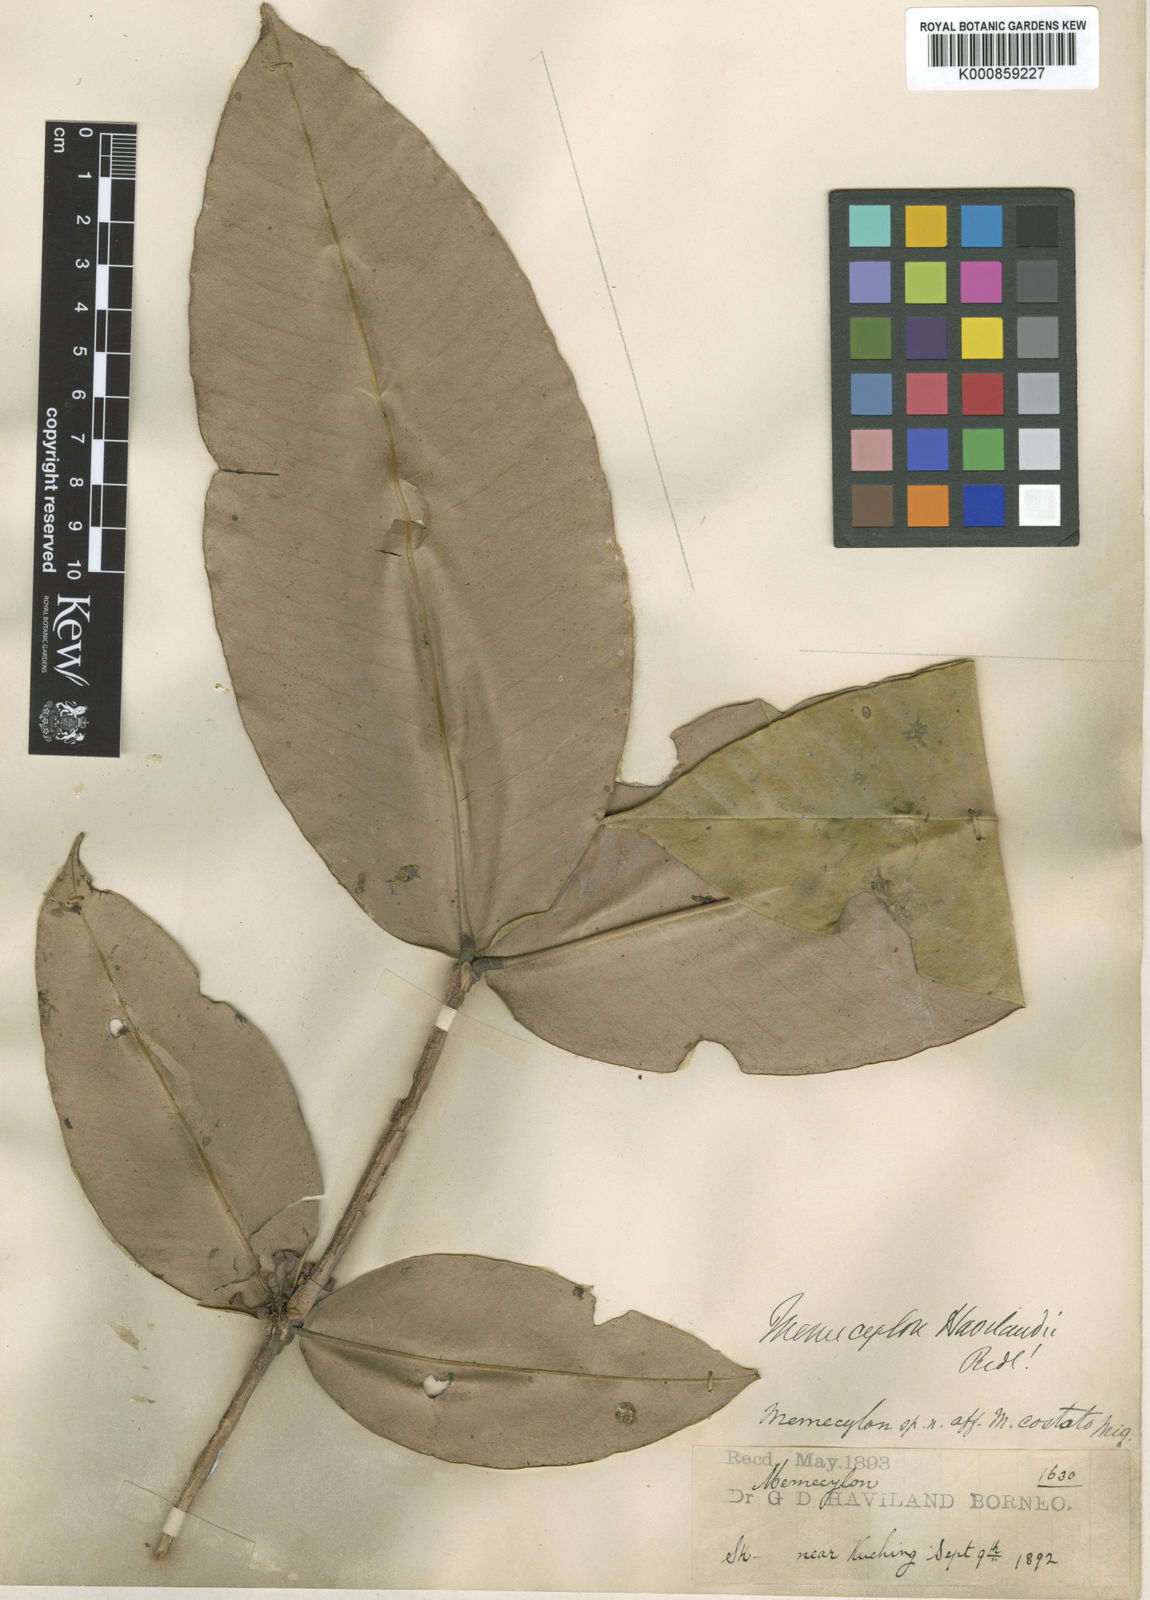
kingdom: Plantae
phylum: Tracheophyta
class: Magnoliopsida
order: Myrtales
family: Melastomataceae
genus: Memecylon
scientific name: Memecylon longifolium
